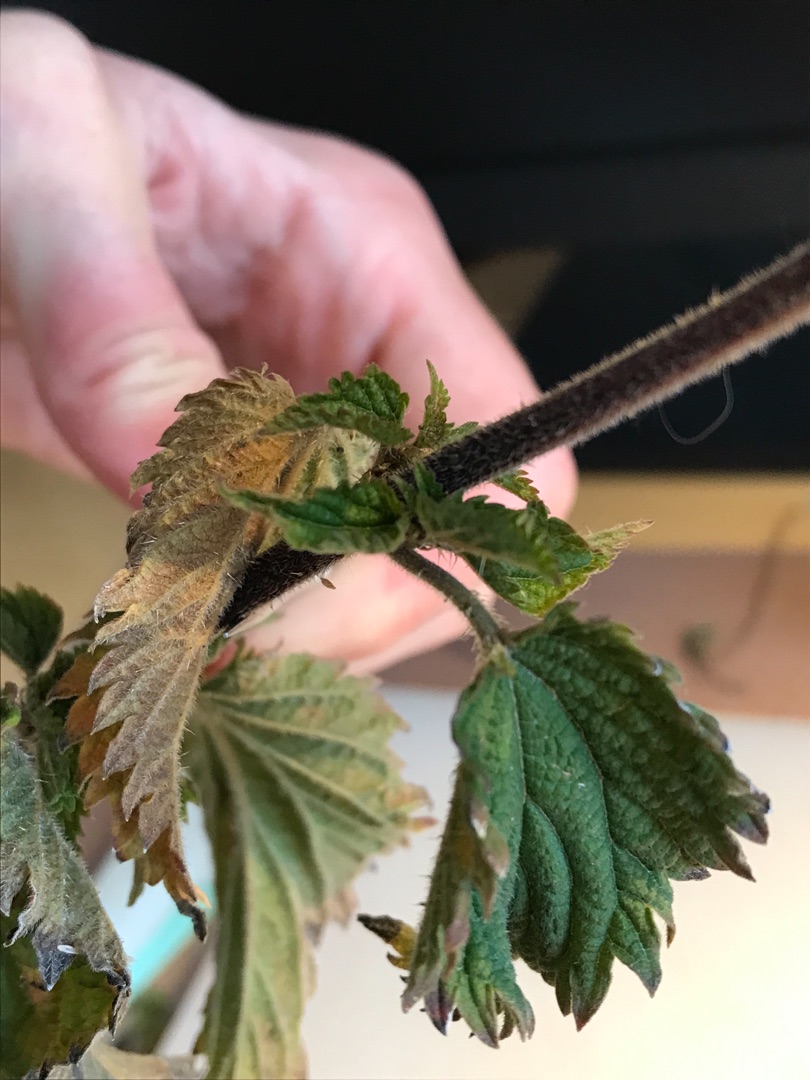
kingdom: Plantae
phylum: Tracheophyta
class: Magnoliopsida
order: Rosales
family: Urticaceae
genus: Urtica
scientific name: Urtica dioica
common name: Stor nælde
